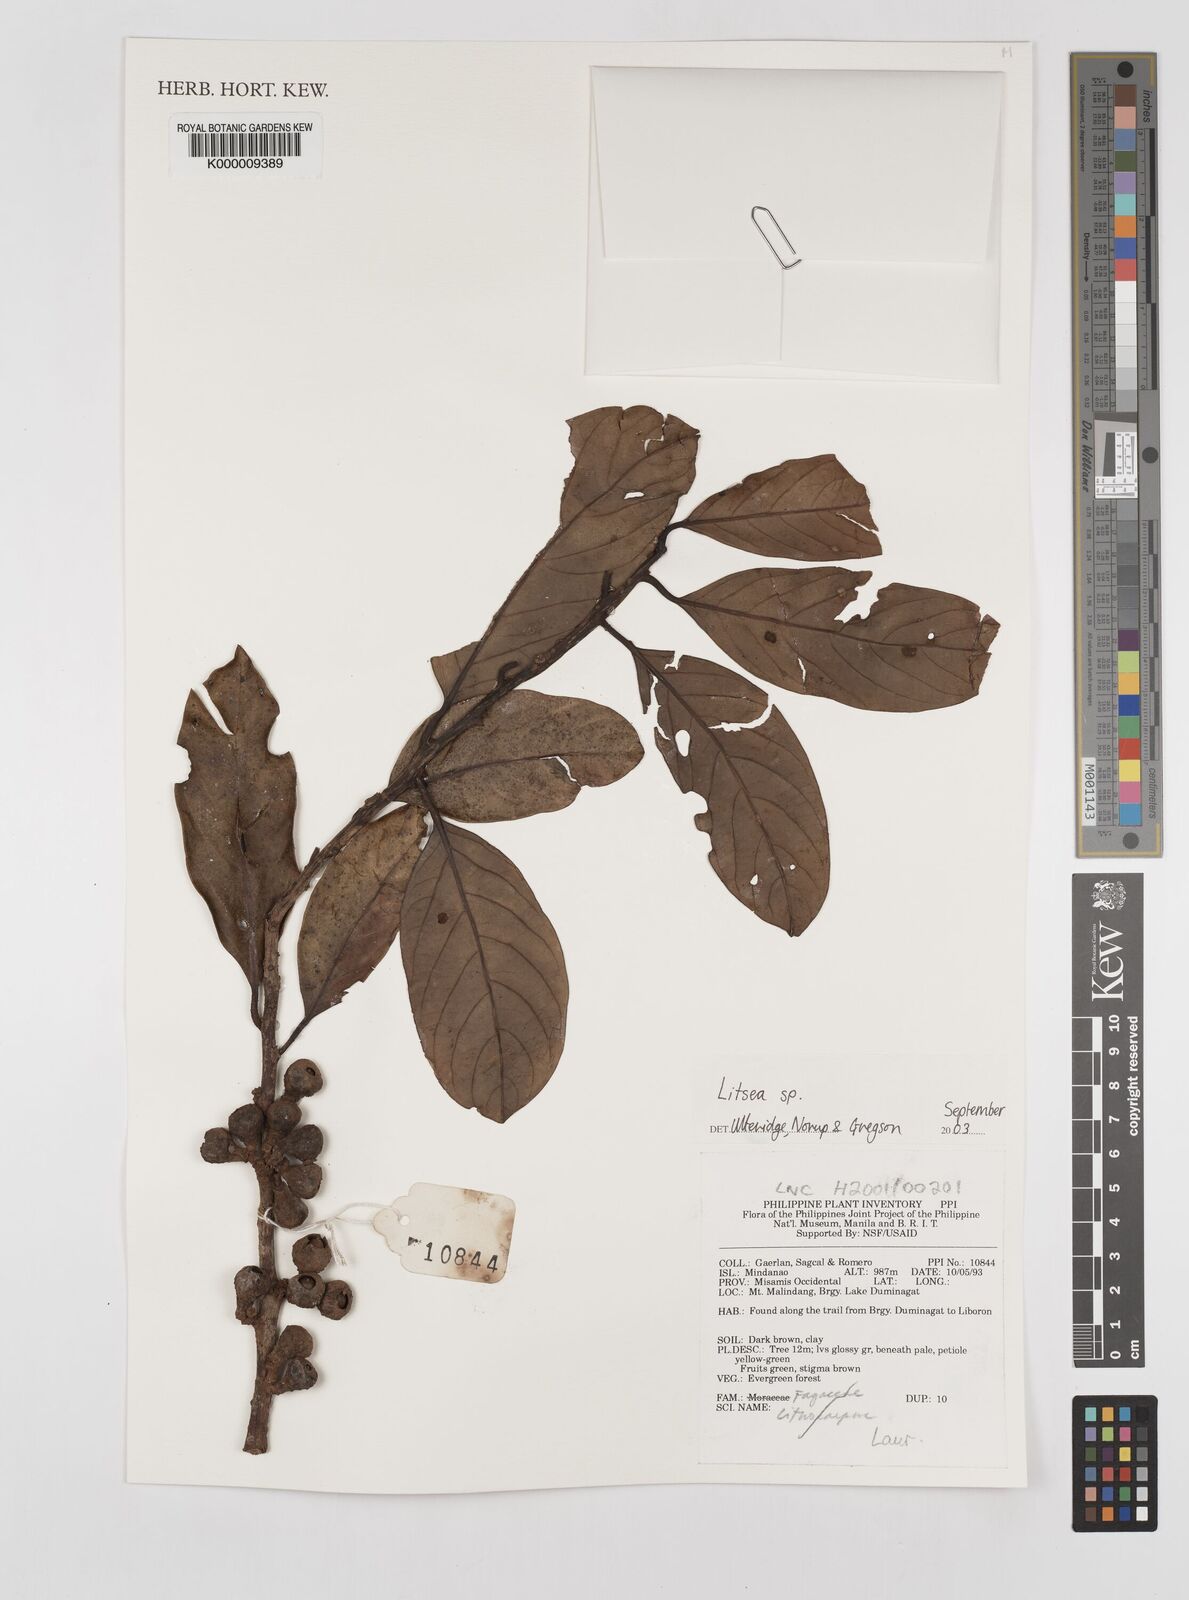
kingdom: Plantae
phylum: Tracheophyta
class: Magnoliopsida
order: Laurales
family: Lauraceae
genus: Litsea
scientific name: Litsea
